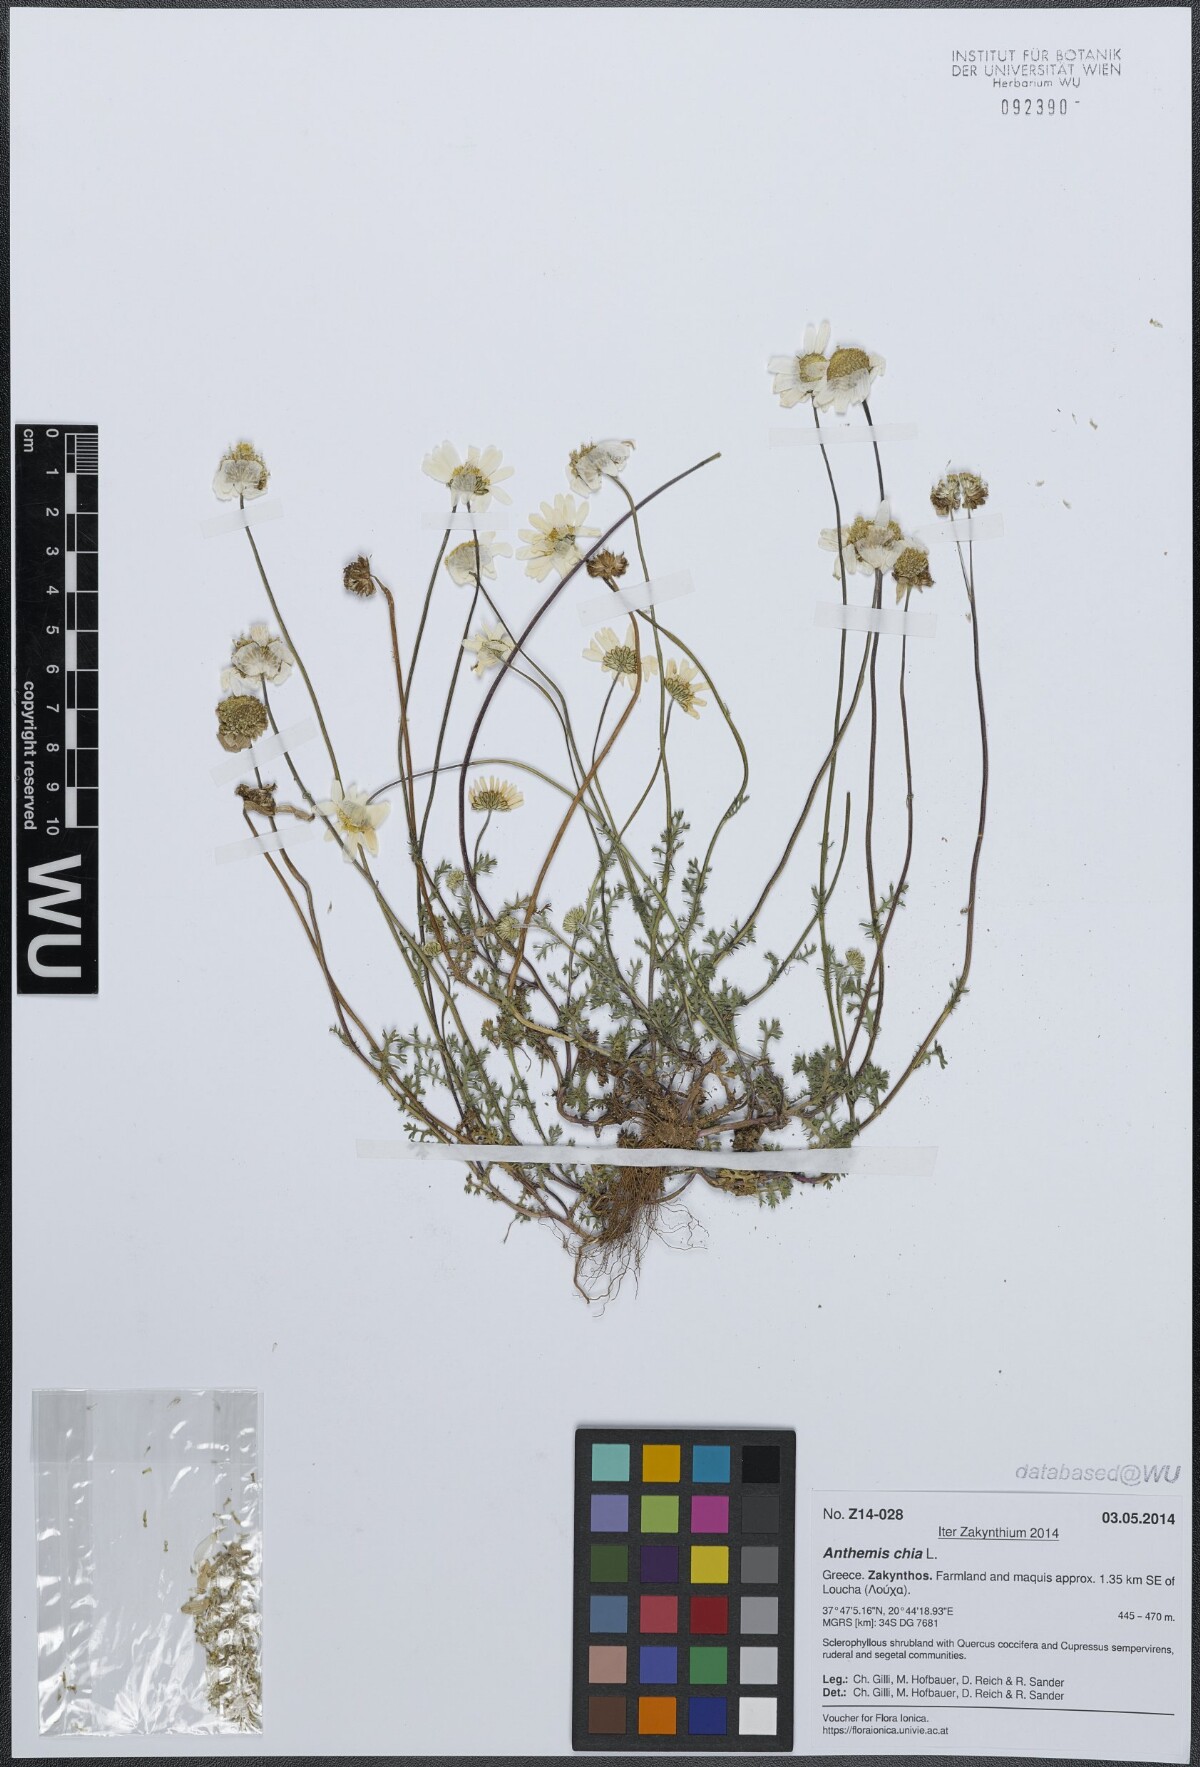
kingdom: Plantae
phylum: Tracheophyta
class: Magnoliopsida
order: Asterales
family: Asteraceae
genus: Anthemis
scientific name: Anthemis chia
